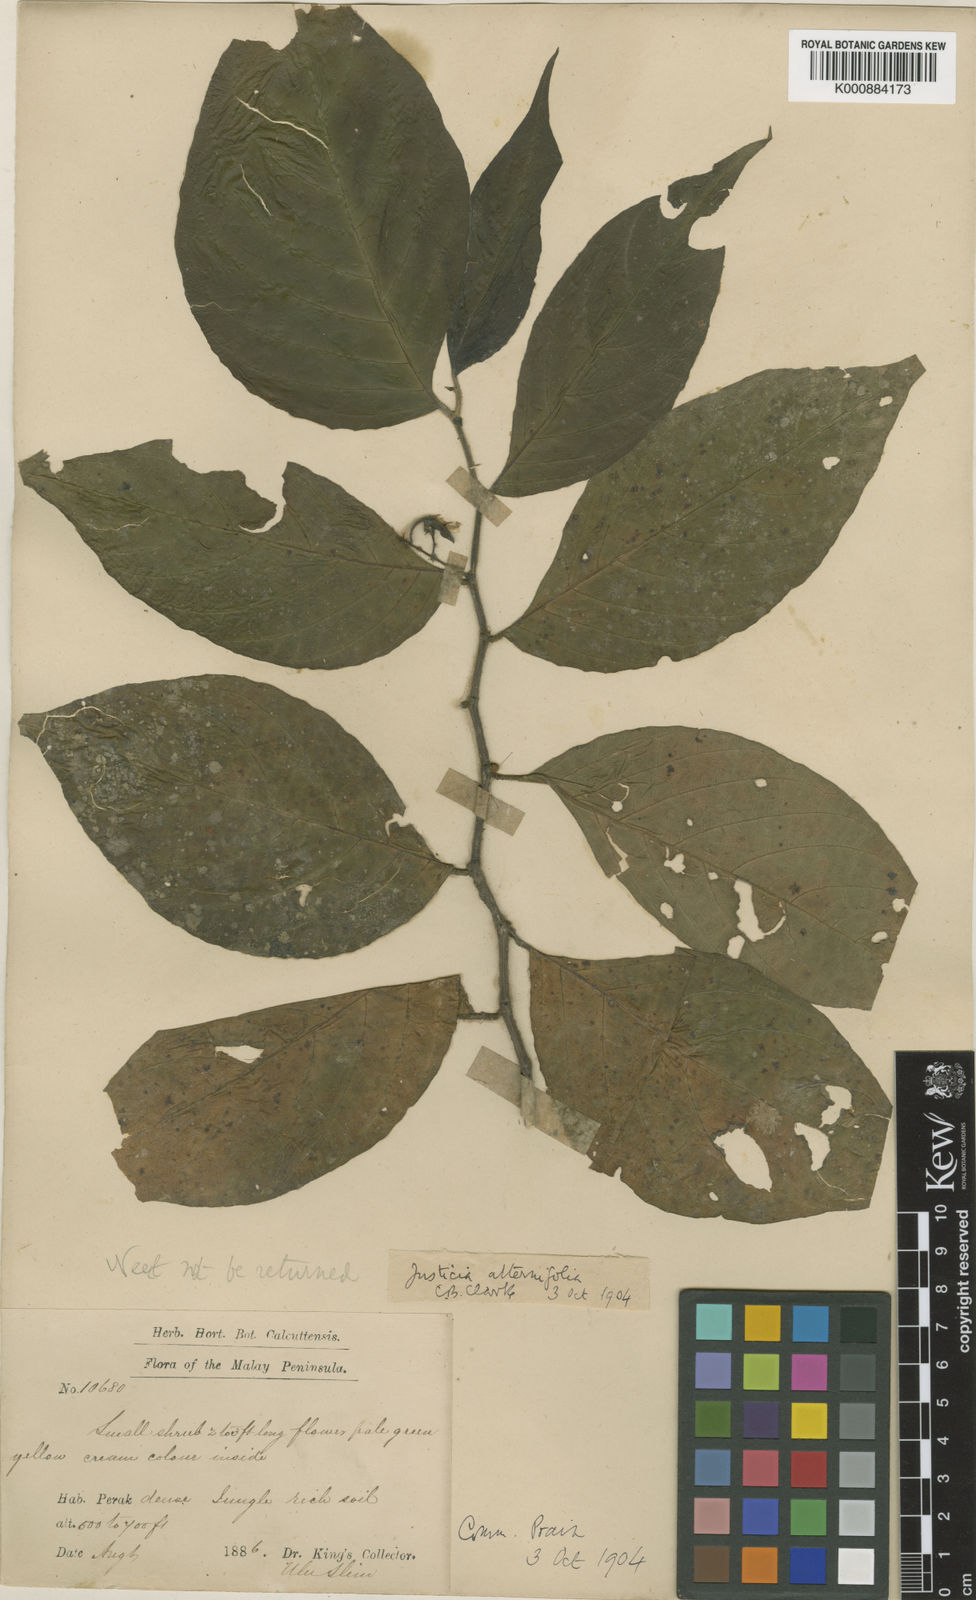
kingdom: Plantae
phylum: Tracheophyta
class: Magnoliopsida
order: Lamiales
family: Acanthaceae
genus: Justicia
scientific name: Justicia alternifolia
